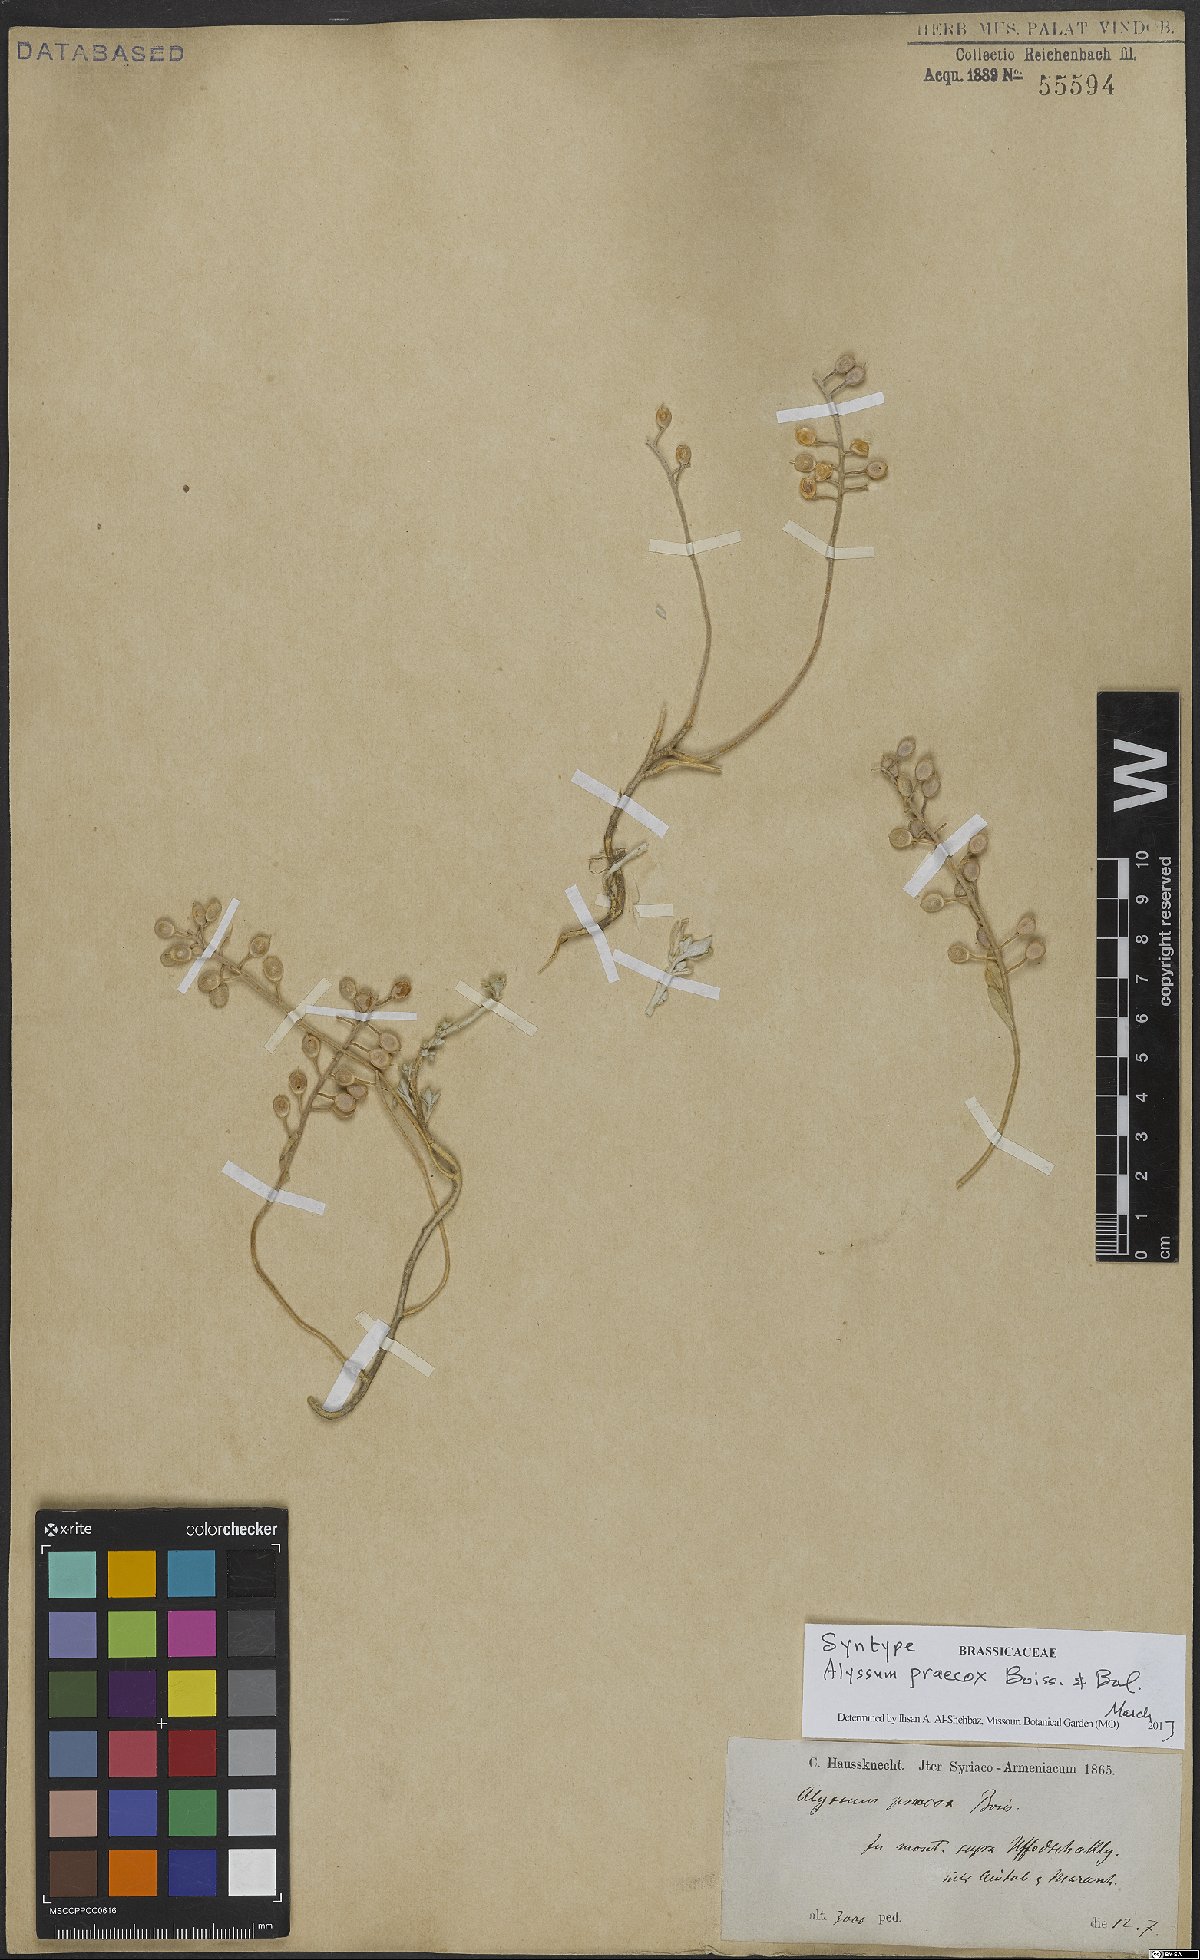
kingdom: Plantae
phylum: Tracheophyta
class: Magnoliopsida
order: Brassicales
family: Brassicaceae
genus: Alyssum
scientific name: Alyssum praecox
